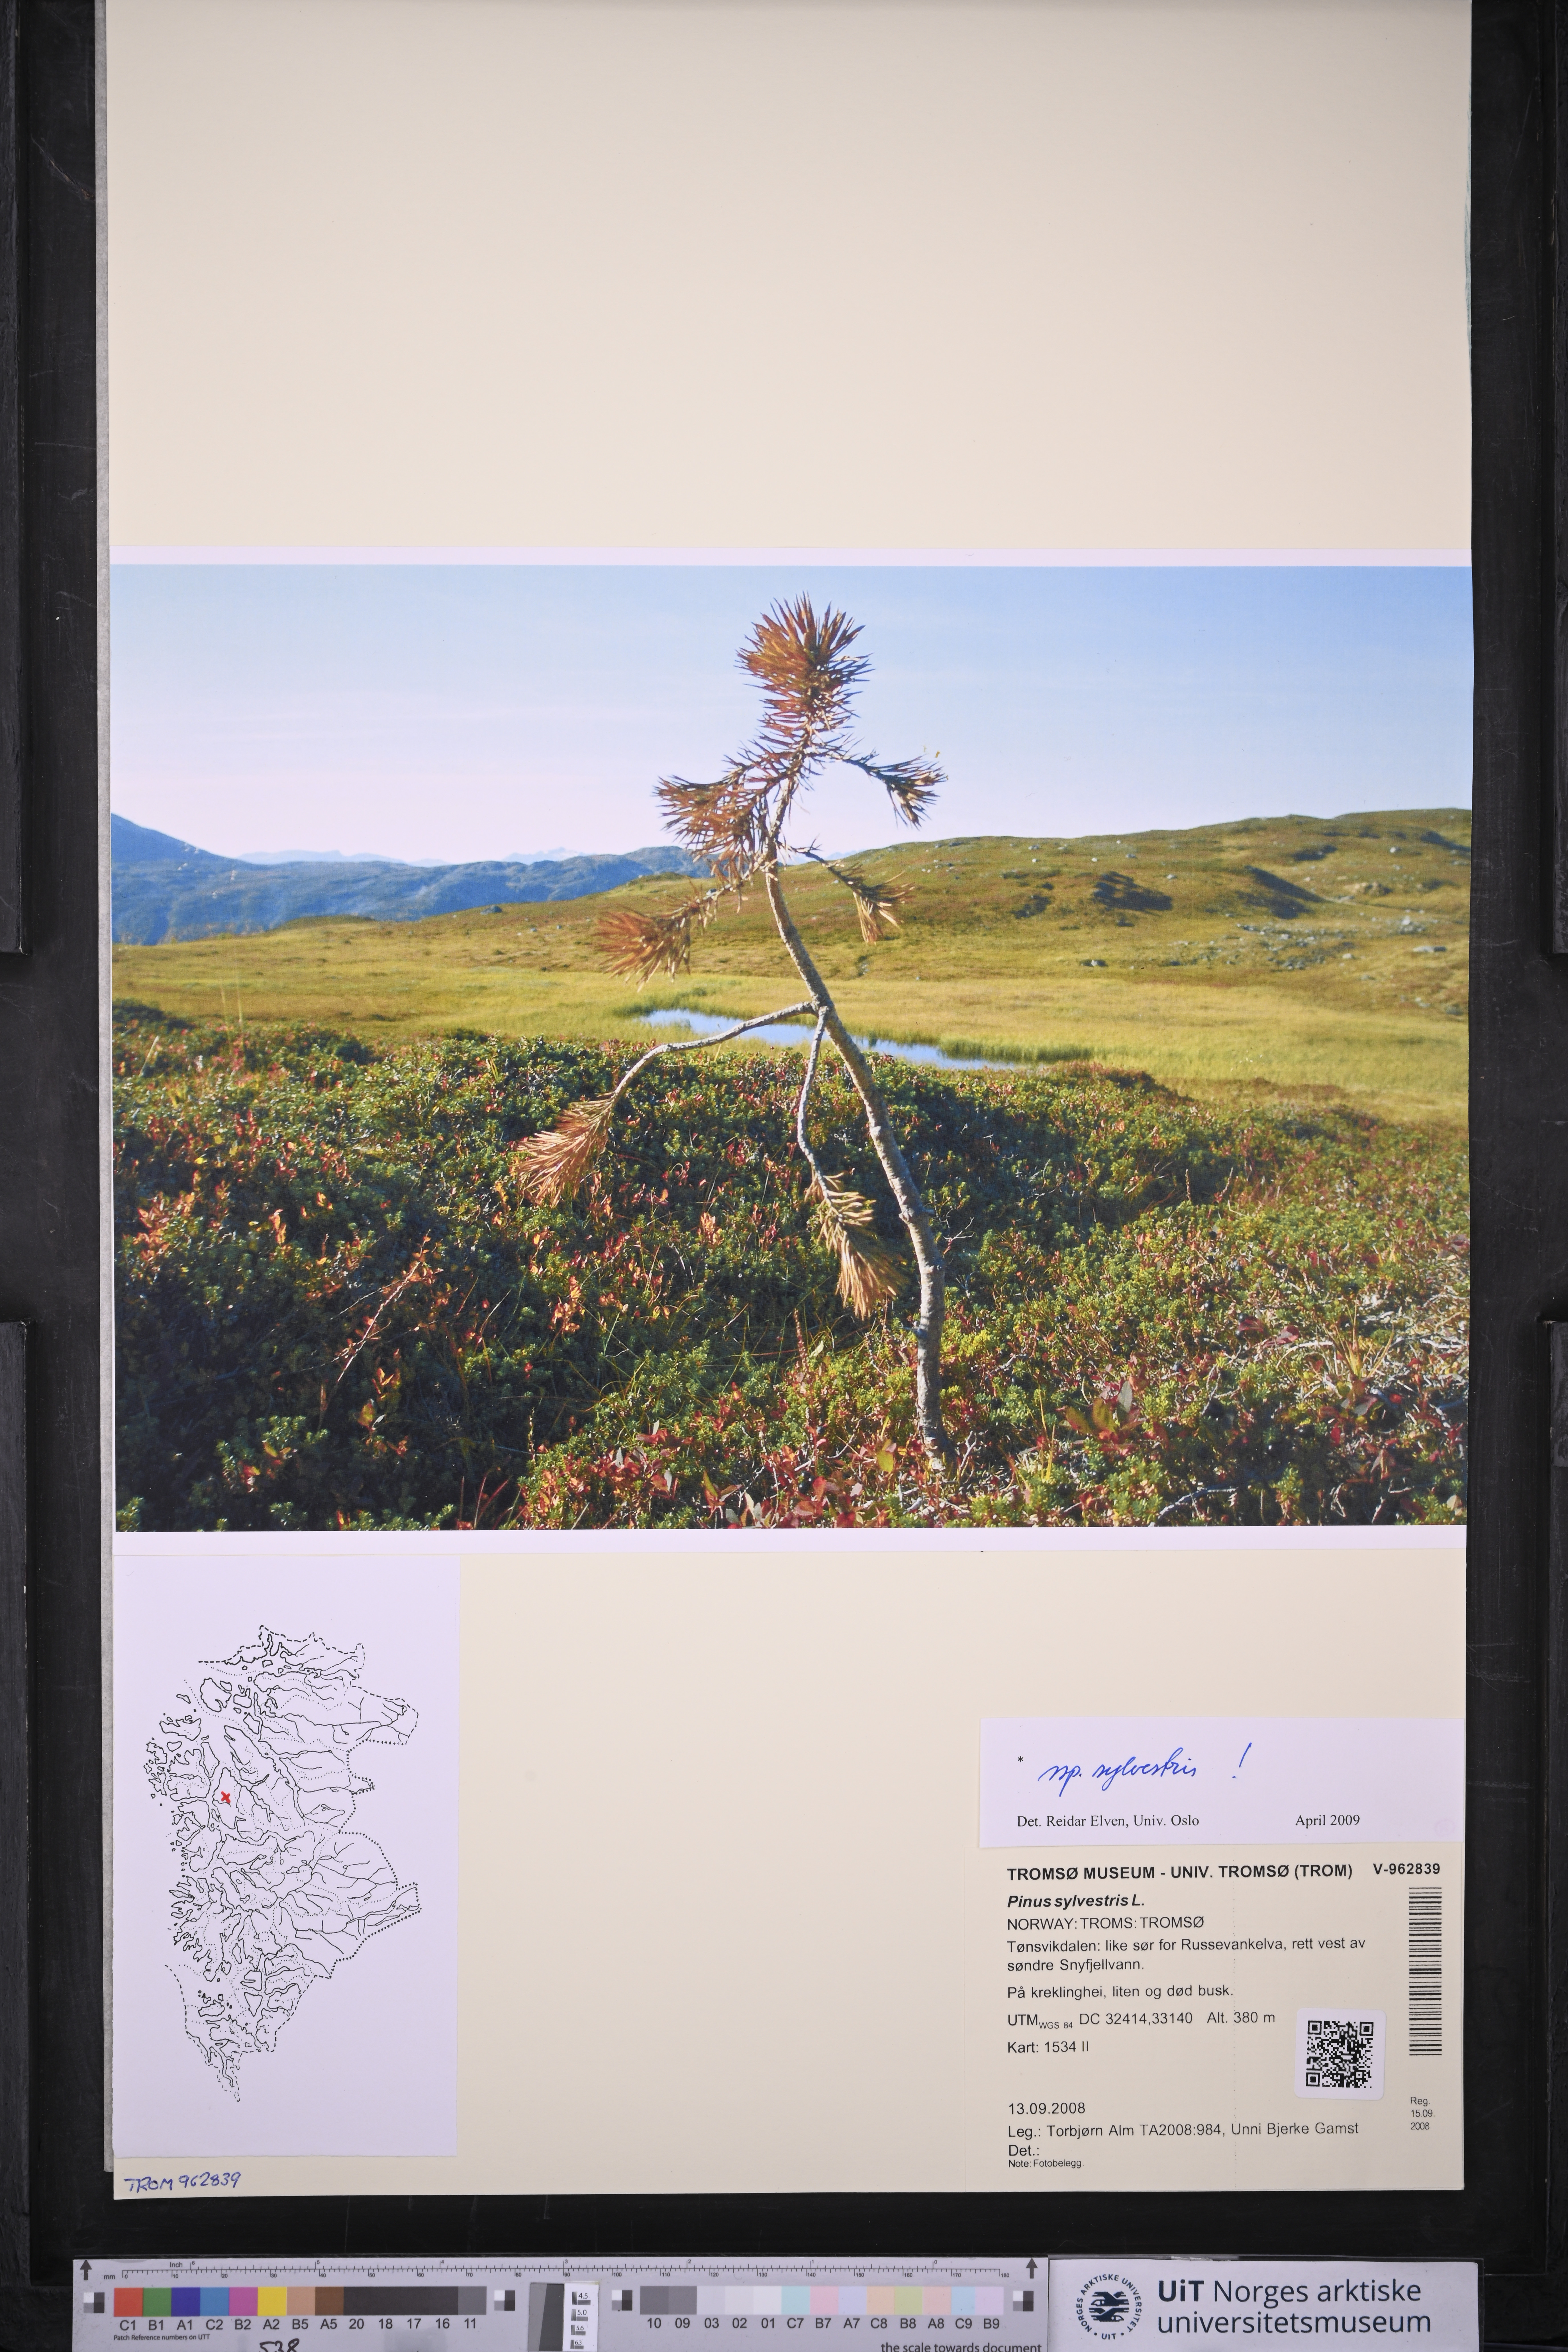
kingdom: Plantae
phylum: Tracheophyta
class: Pinopsida
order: Pinales
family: Pinaceae
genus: Pinus
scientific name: Pinus sylvestris
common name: Scots pine
